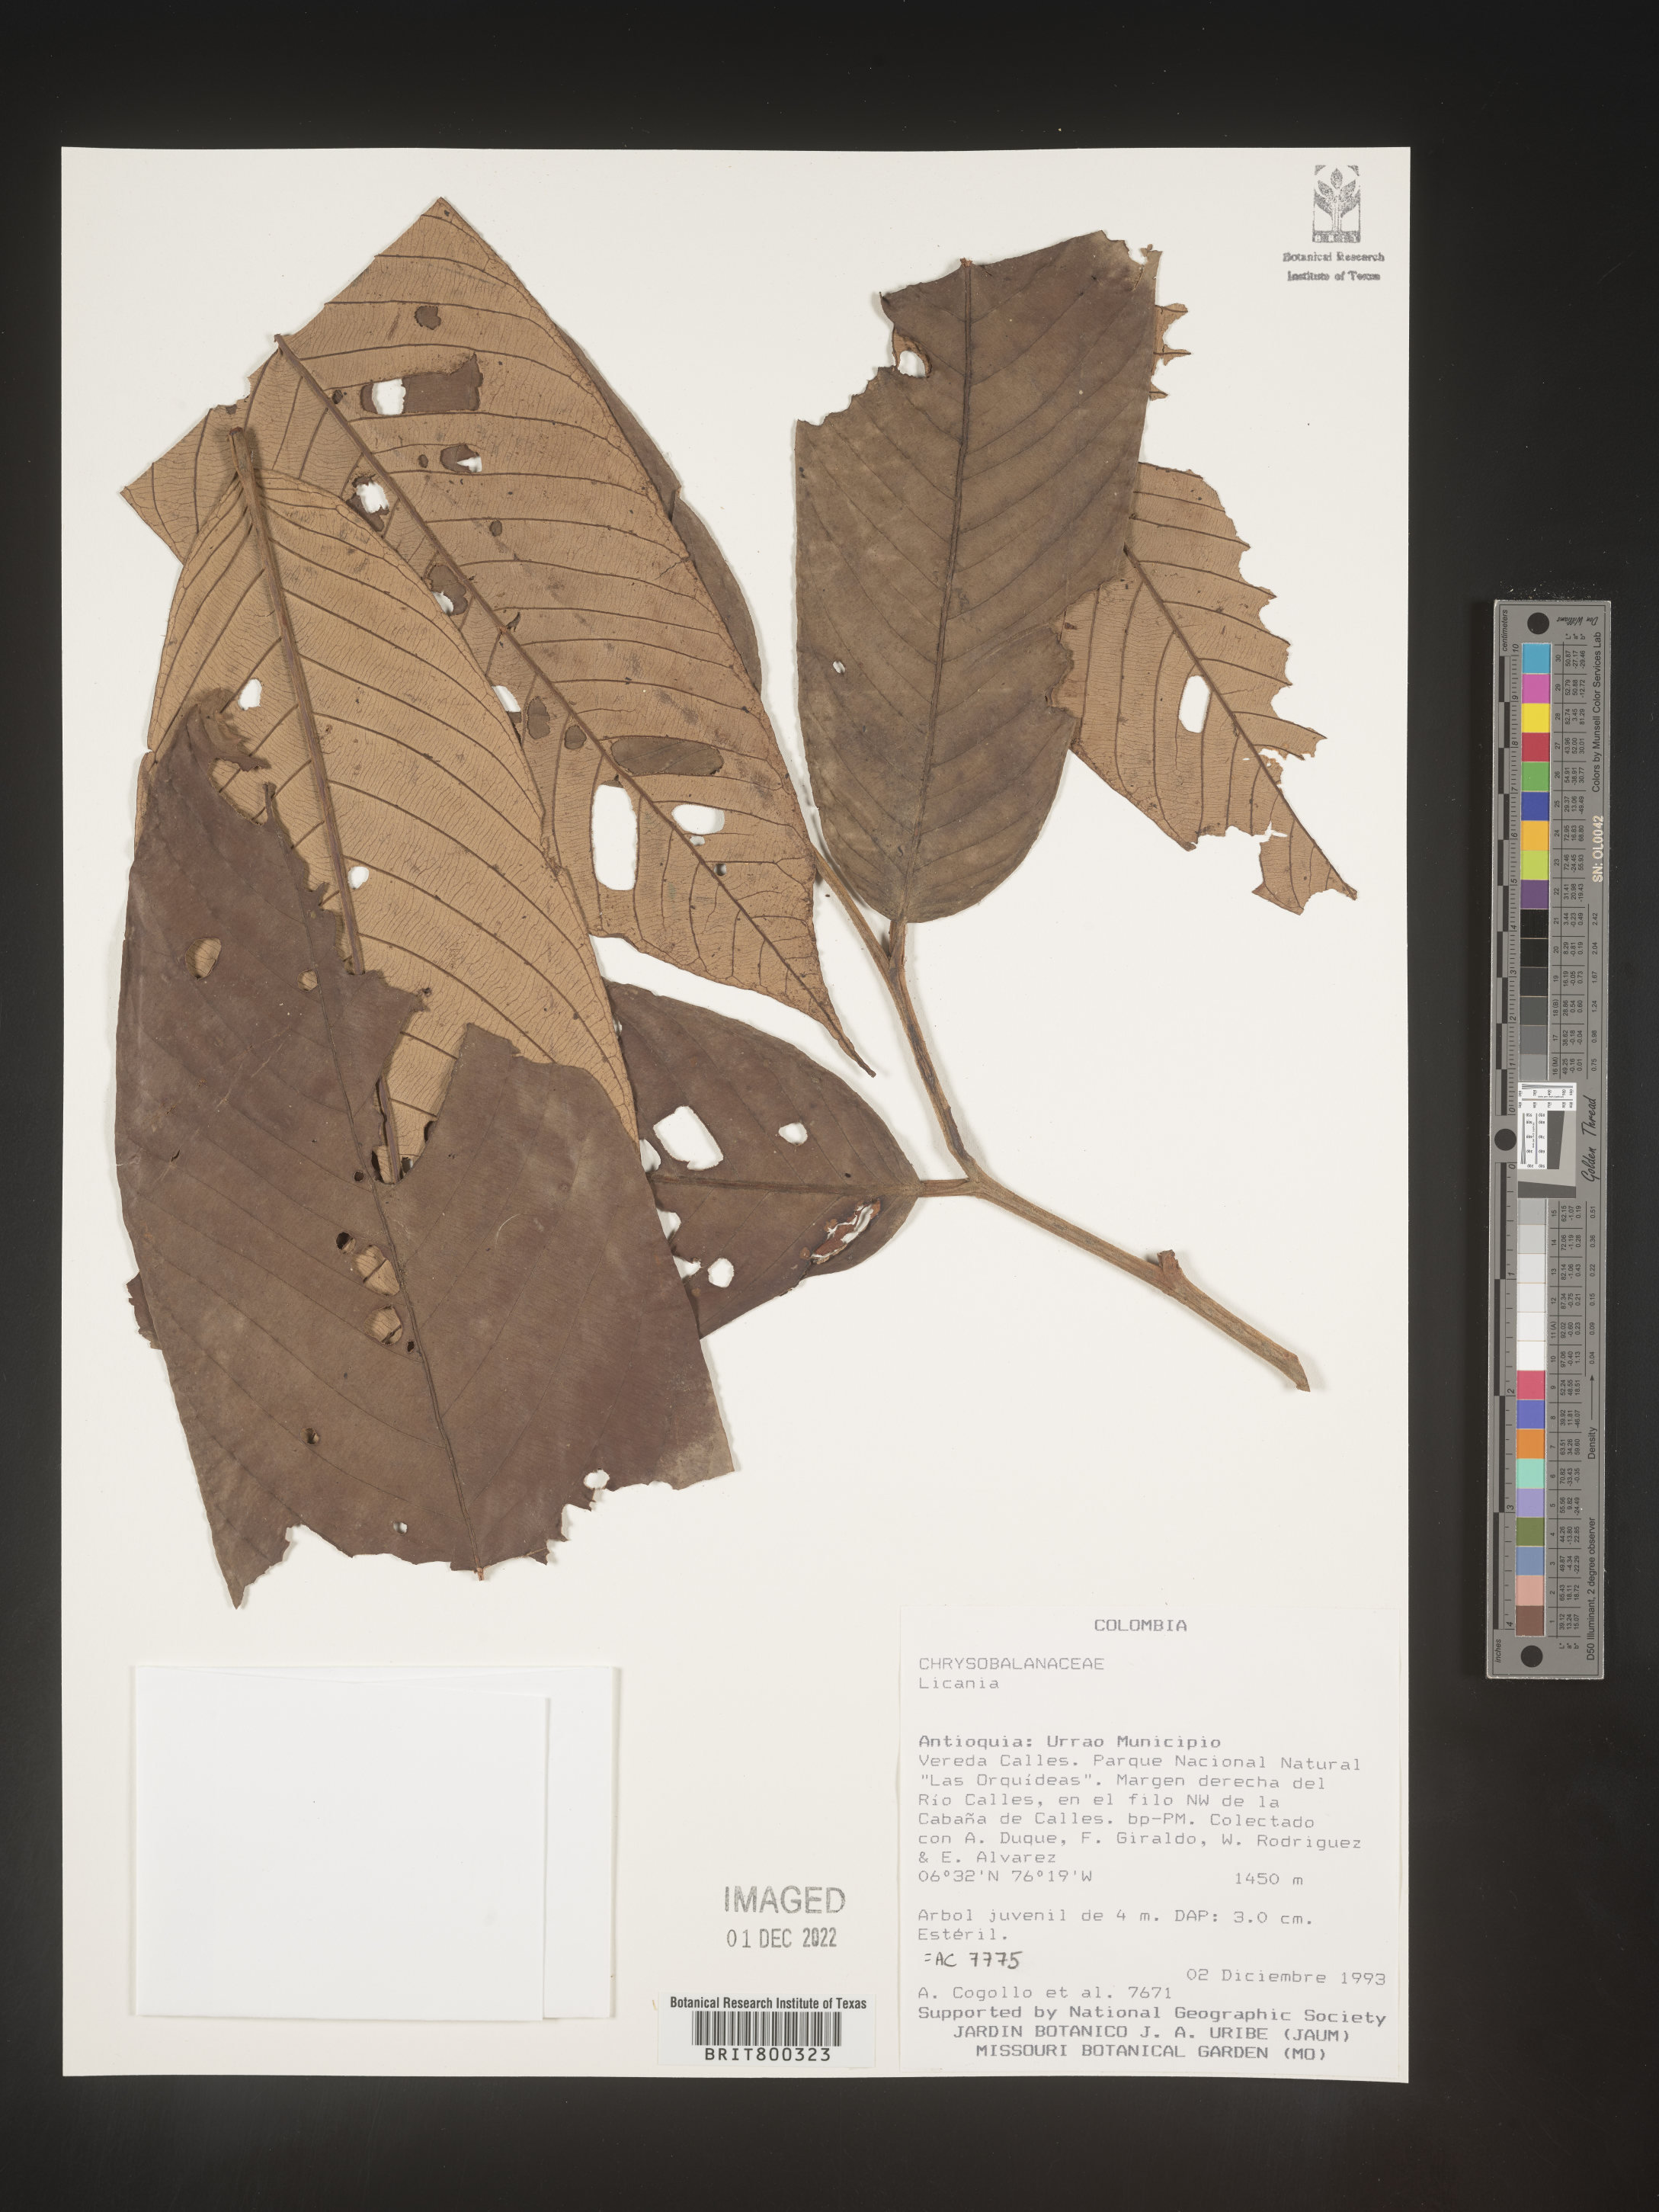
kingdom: Plantae
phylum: Tracheophyta
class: Magnoliopsida
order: Malpighiales
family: Chrysobalanaceae
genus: Licania
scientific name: Licania
